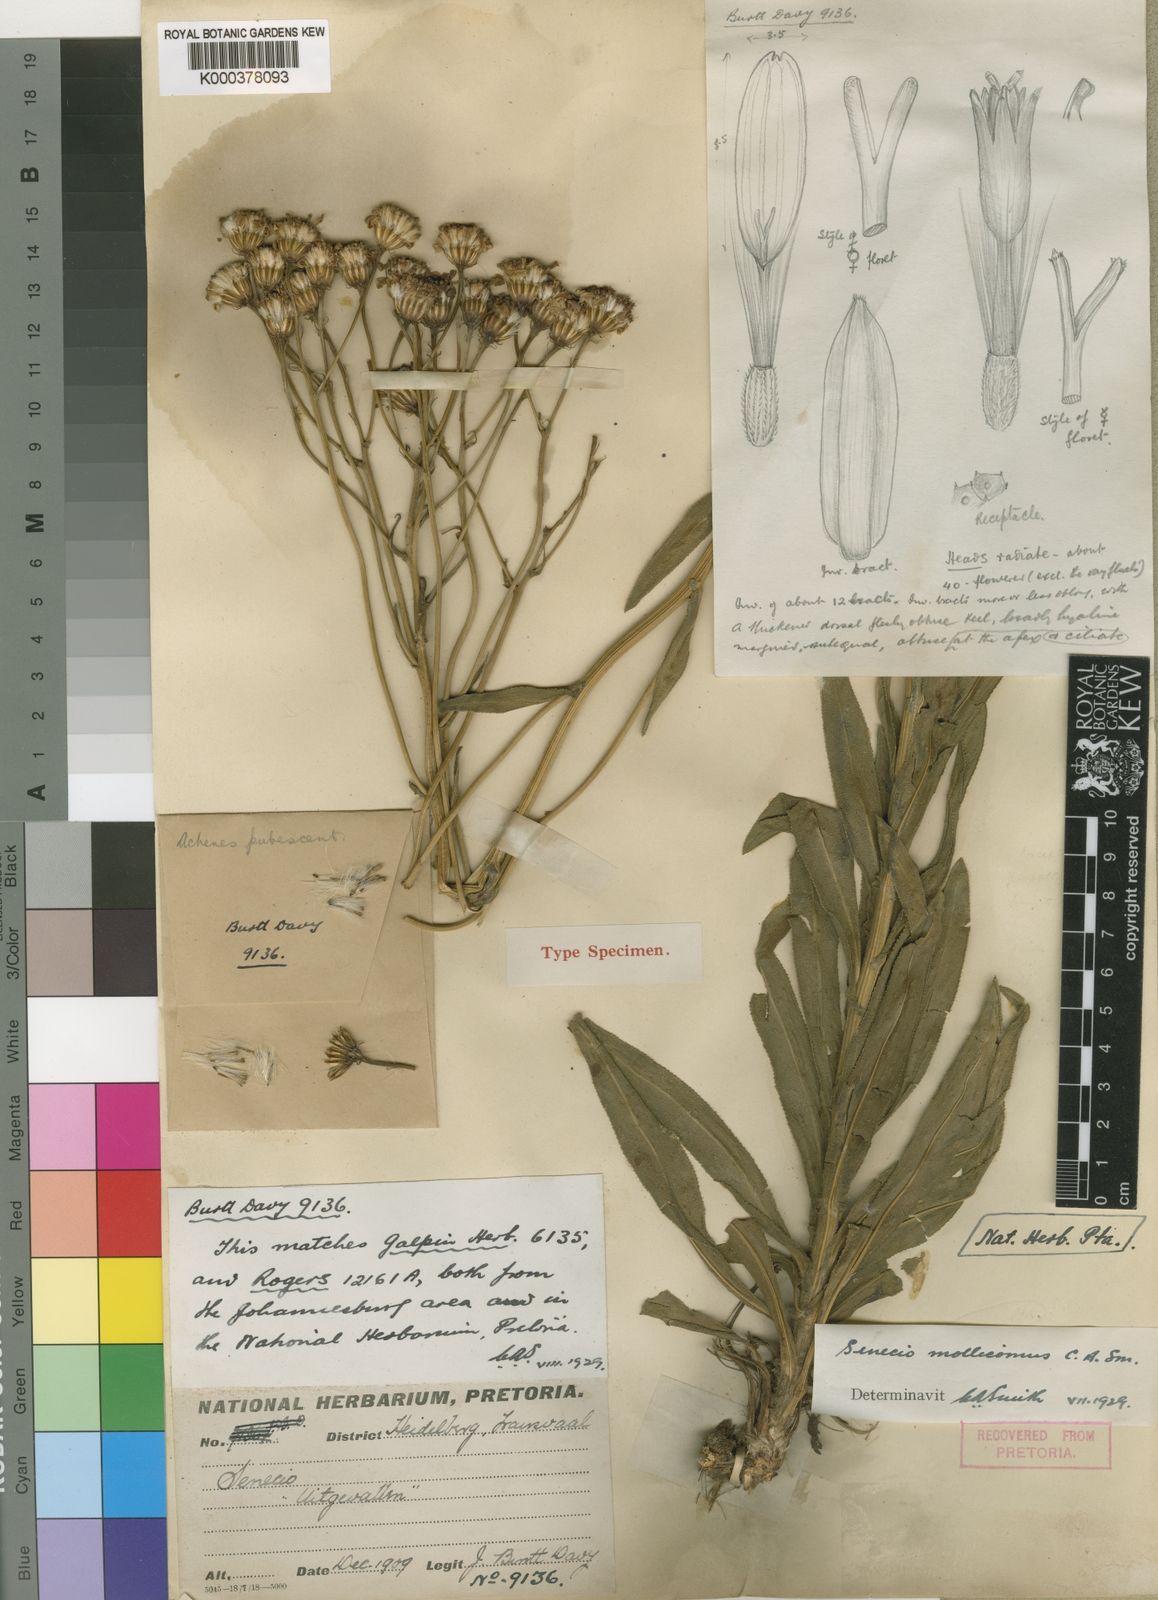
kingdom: Plantae
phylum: Tracheophyta
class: Magnoliopsida
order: Asterales
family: Asteraceae
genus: Senecio
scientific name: Senecio
